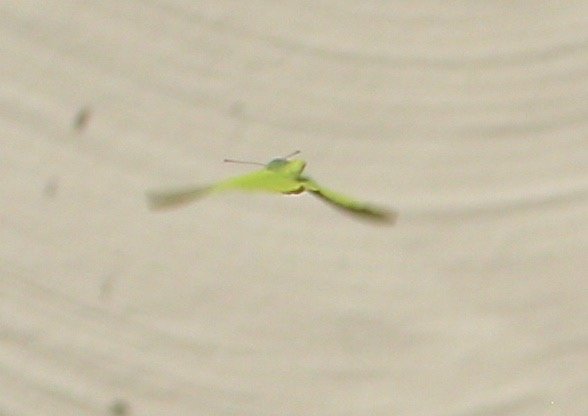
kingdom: Animalia
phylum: Arthropoda
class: Insecta
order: Lepidoptera
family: Pieridae
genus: Colias
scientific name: Colias philodice
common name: Clouded Sulphur
